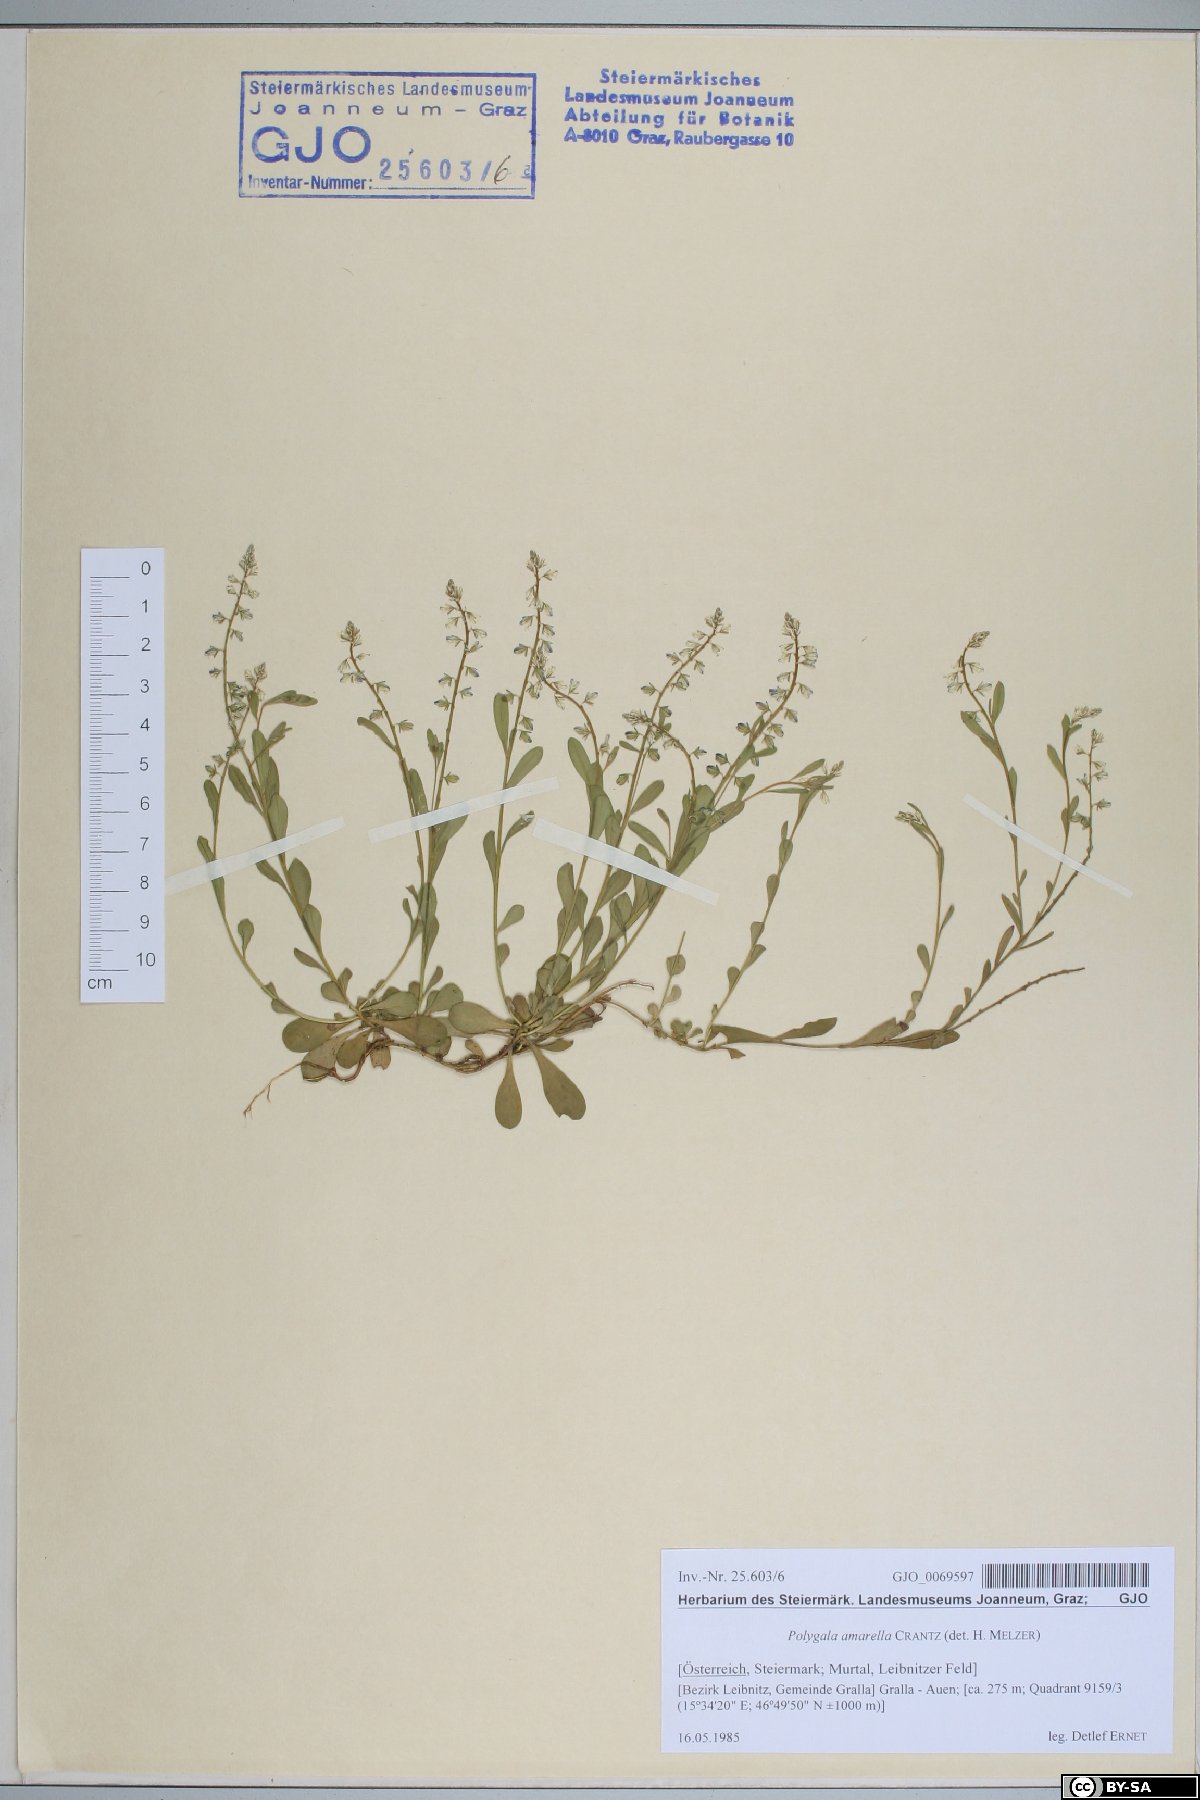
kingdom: Plantae
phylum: Tracheophyta
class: Magnoliopsida
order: Fabales
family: Polygalaceae
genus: Polygala
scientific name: Polygala amarella
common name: Dwarf milkwort
